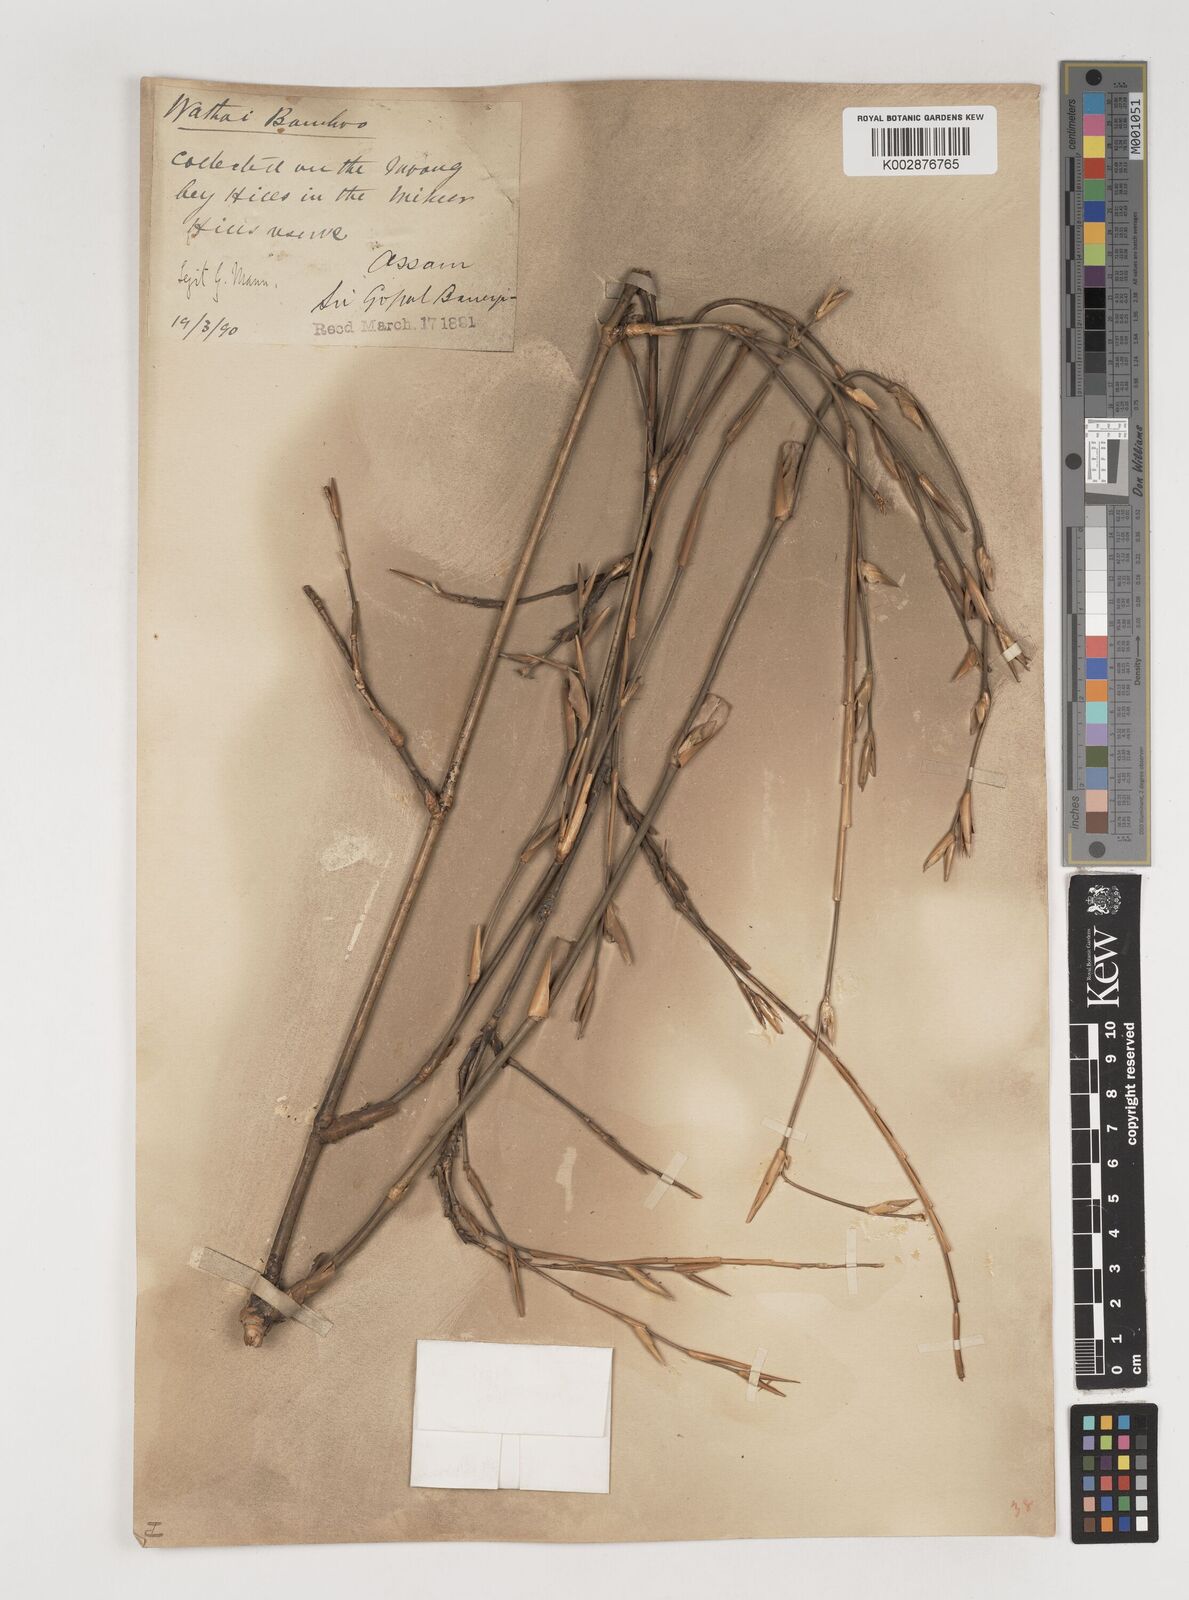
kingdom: Plantae
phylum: Tracheophyta
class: Liliopsida
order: Poales
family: Poaceae
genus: Bambusa
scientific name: Bambusa pallida
